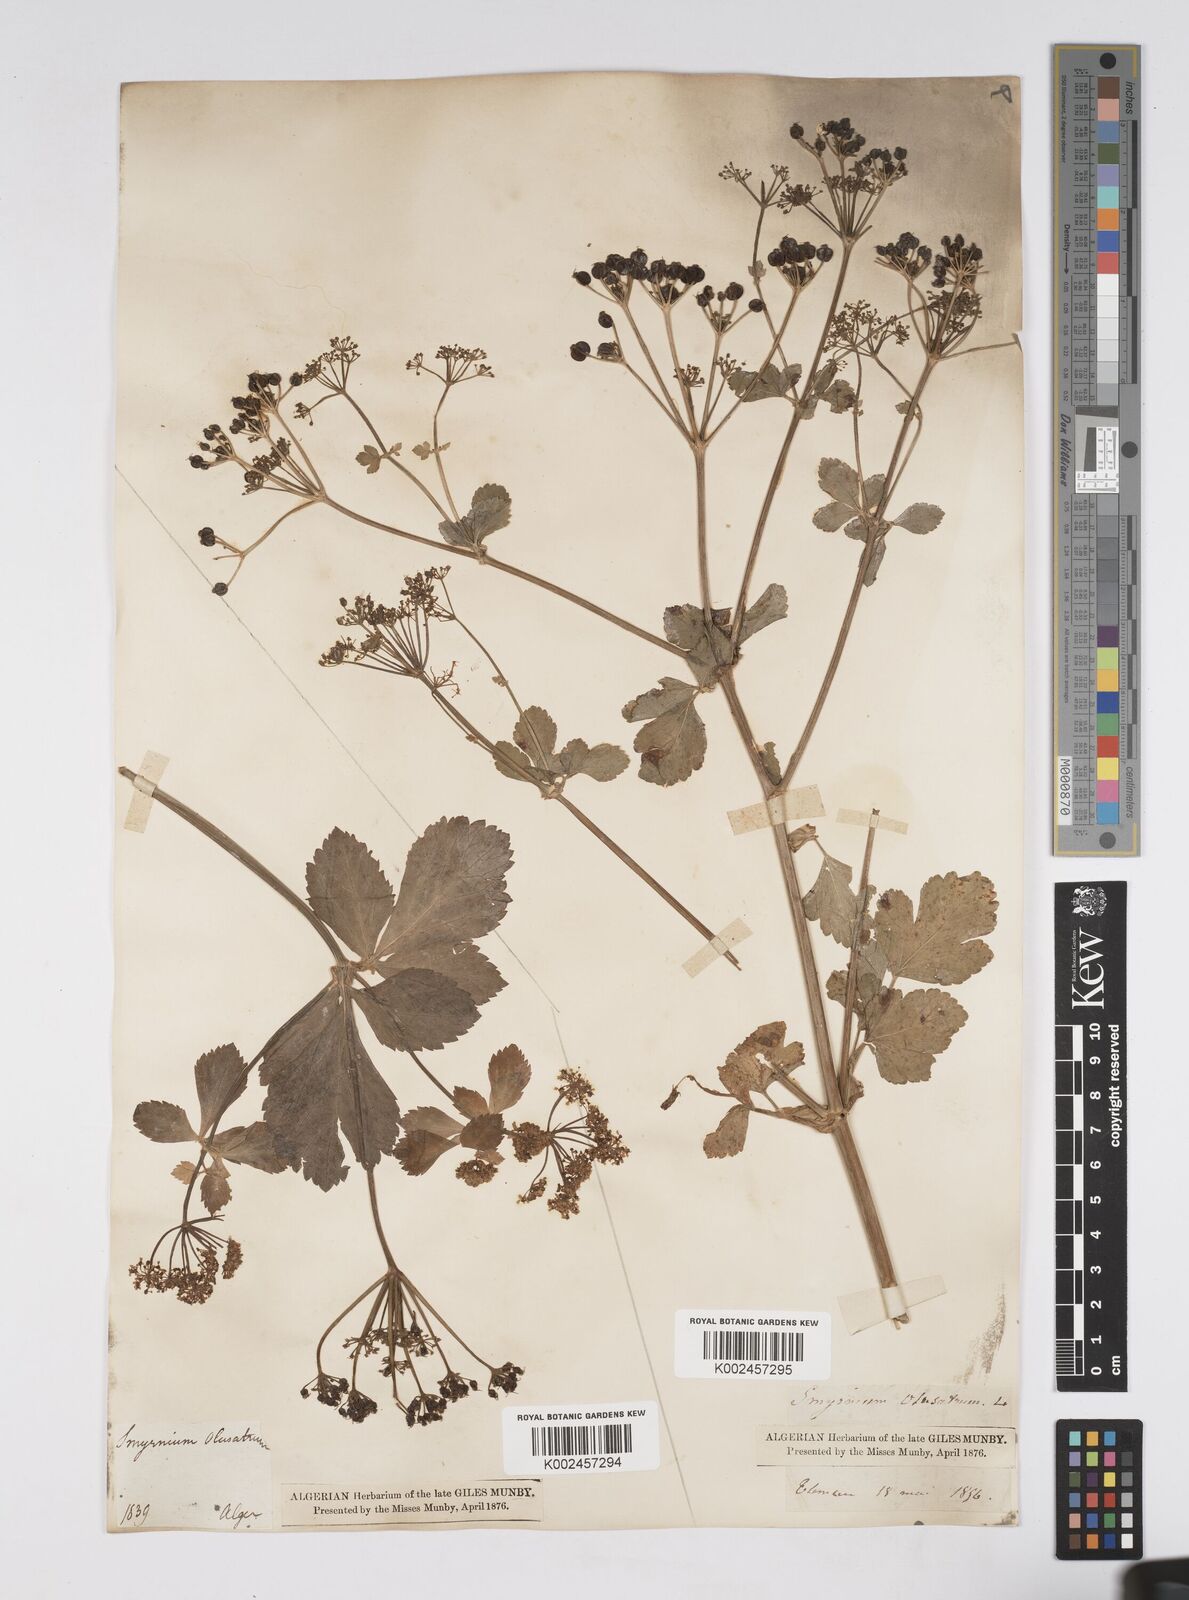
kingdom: Plantae
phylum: Tracheophyta
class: Magnoliopsida
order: Apiales
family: Apiaceae
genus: Smyrnium
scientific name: Smyrnium olusatrum
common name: Alexanders
